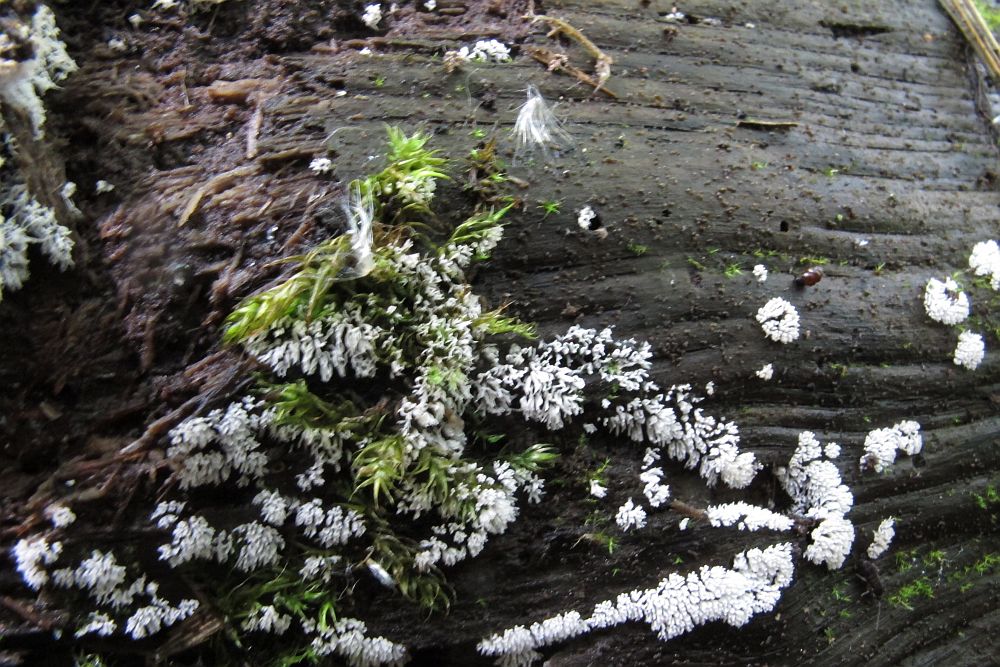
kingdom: Protozoa
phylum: Mycetozoa
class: Protosteliomycetes
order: Ceratiomyxales
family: Ceratiomyxaceae
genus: Ceratiomyxa
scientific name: Ceratiomyxa fruticulosa
